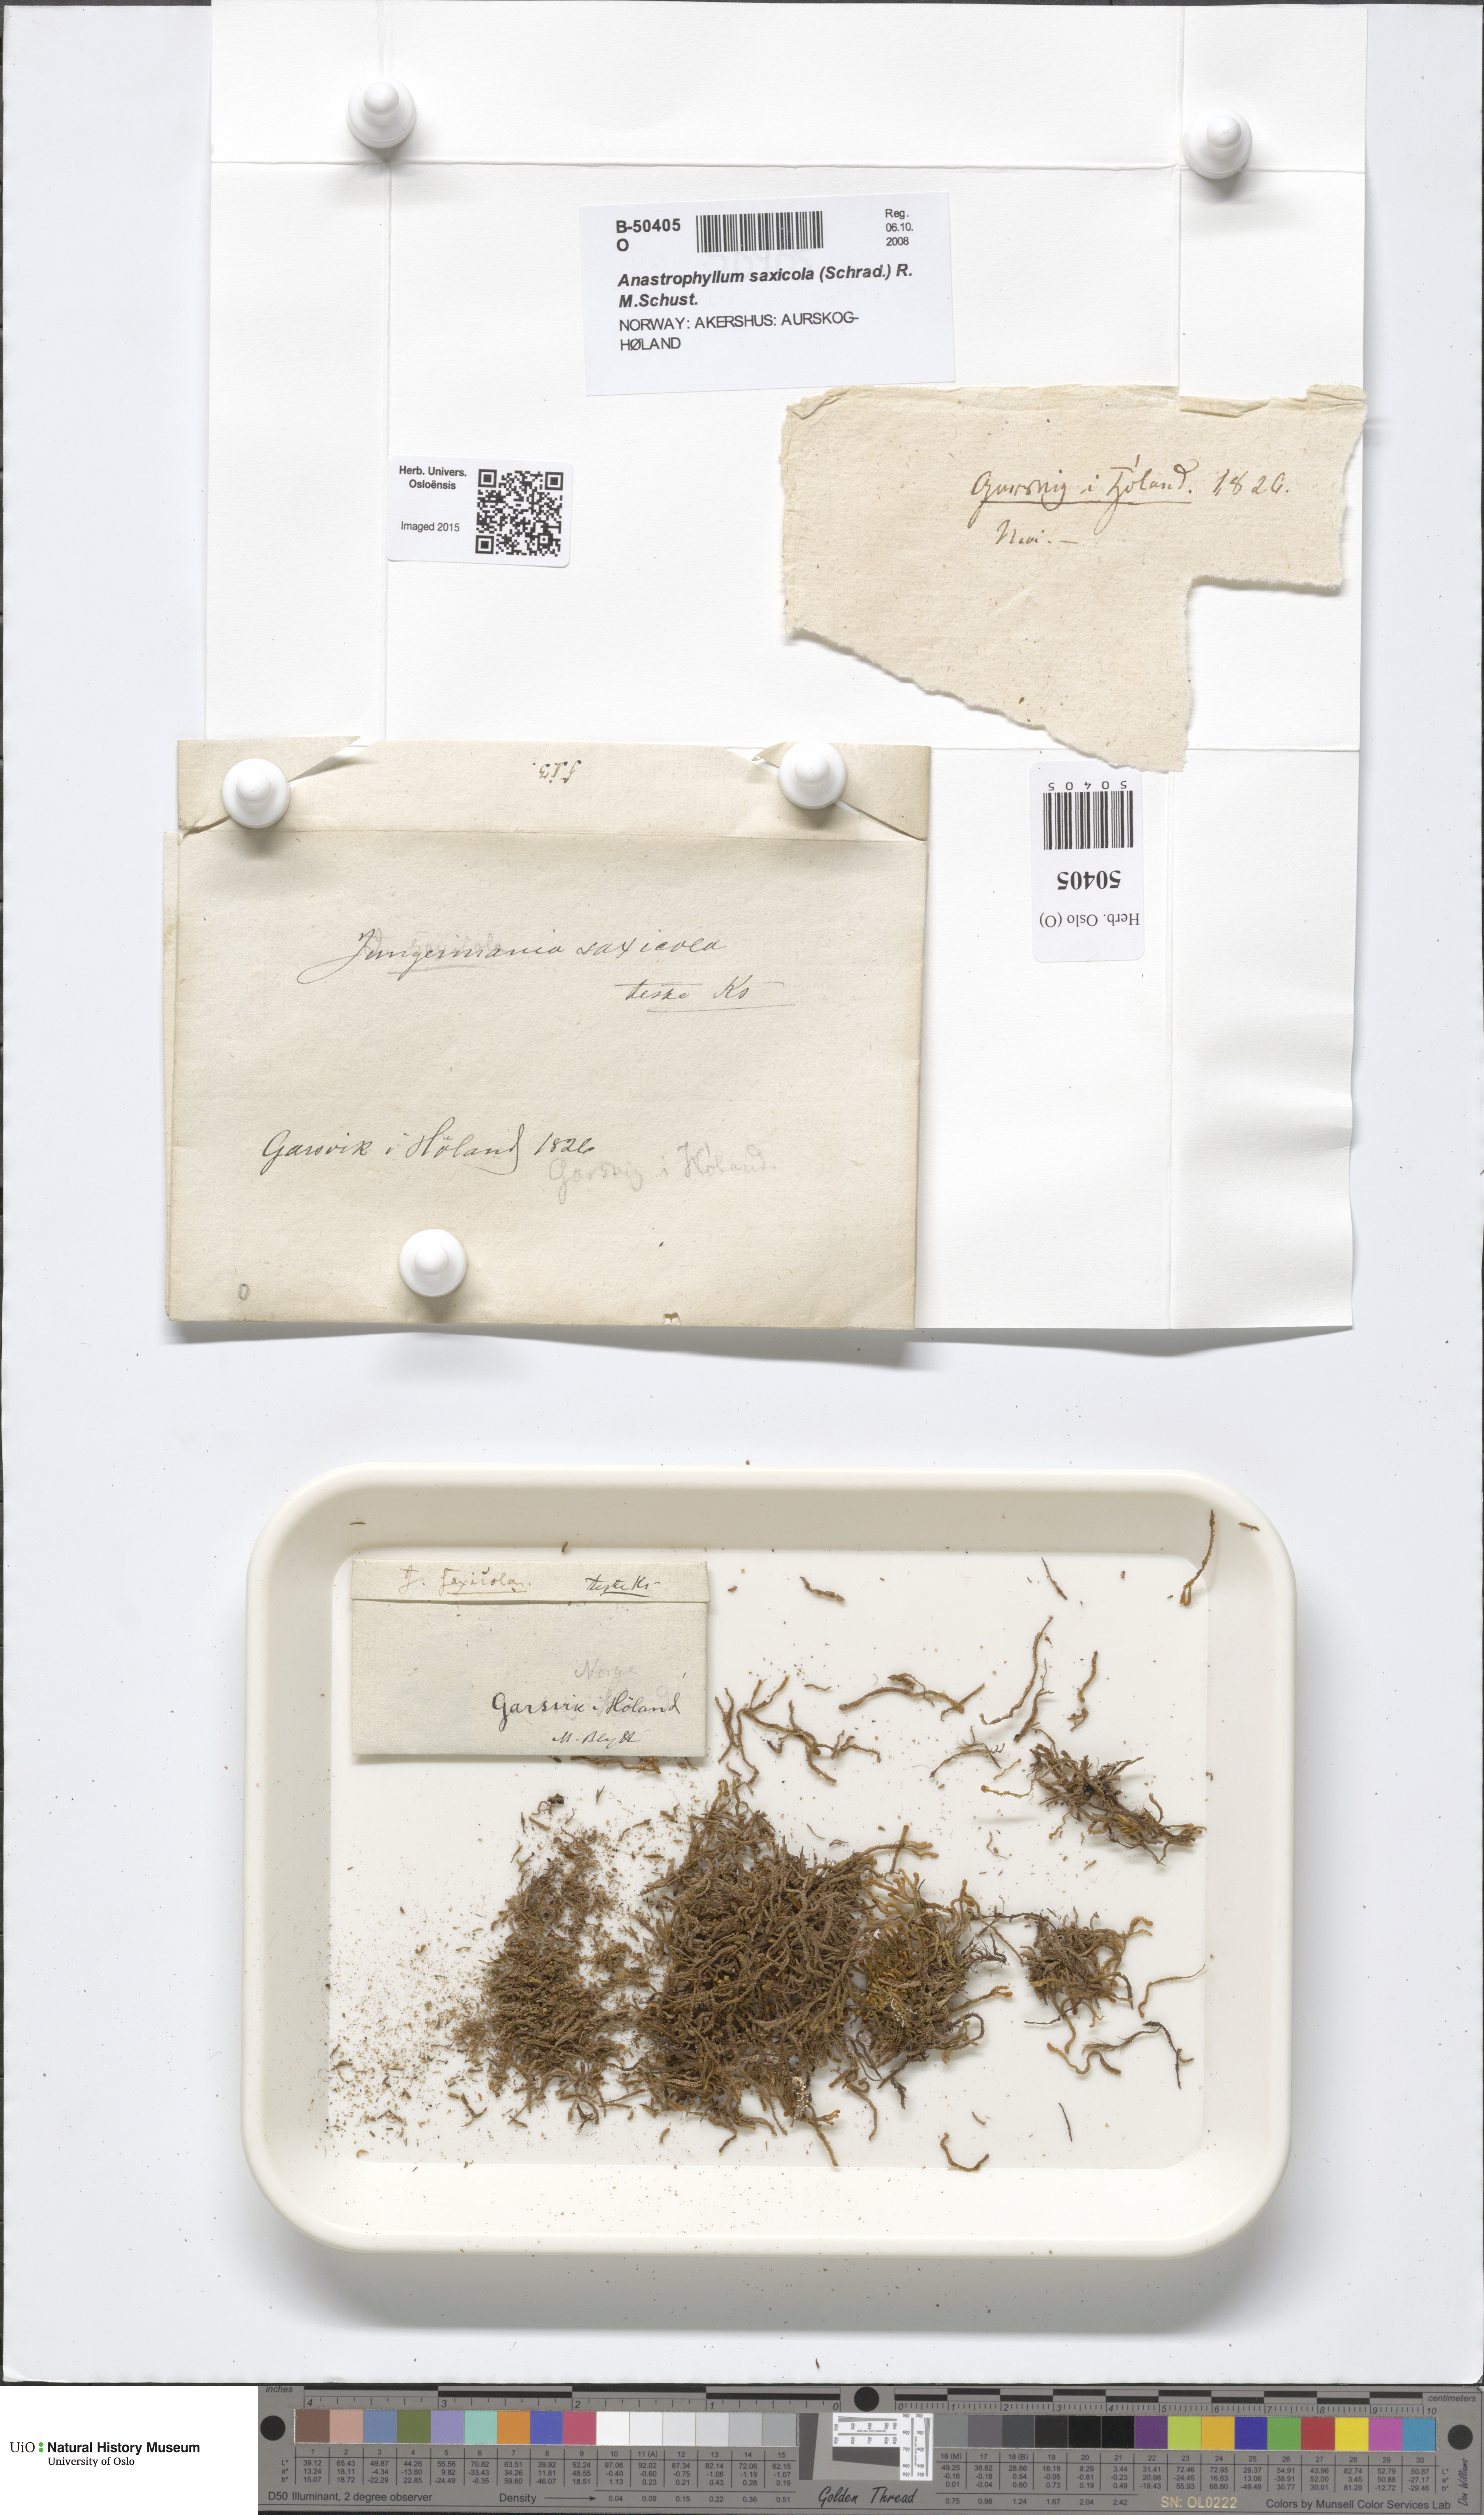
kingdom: Plantae
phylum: Marchantiophyta
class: Jungermanniopsida
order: Jungermanniales
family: Anastrophyllaceae
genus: Sphenolobus
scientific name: Sphenolobus saxicola
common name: Curled notchwort
